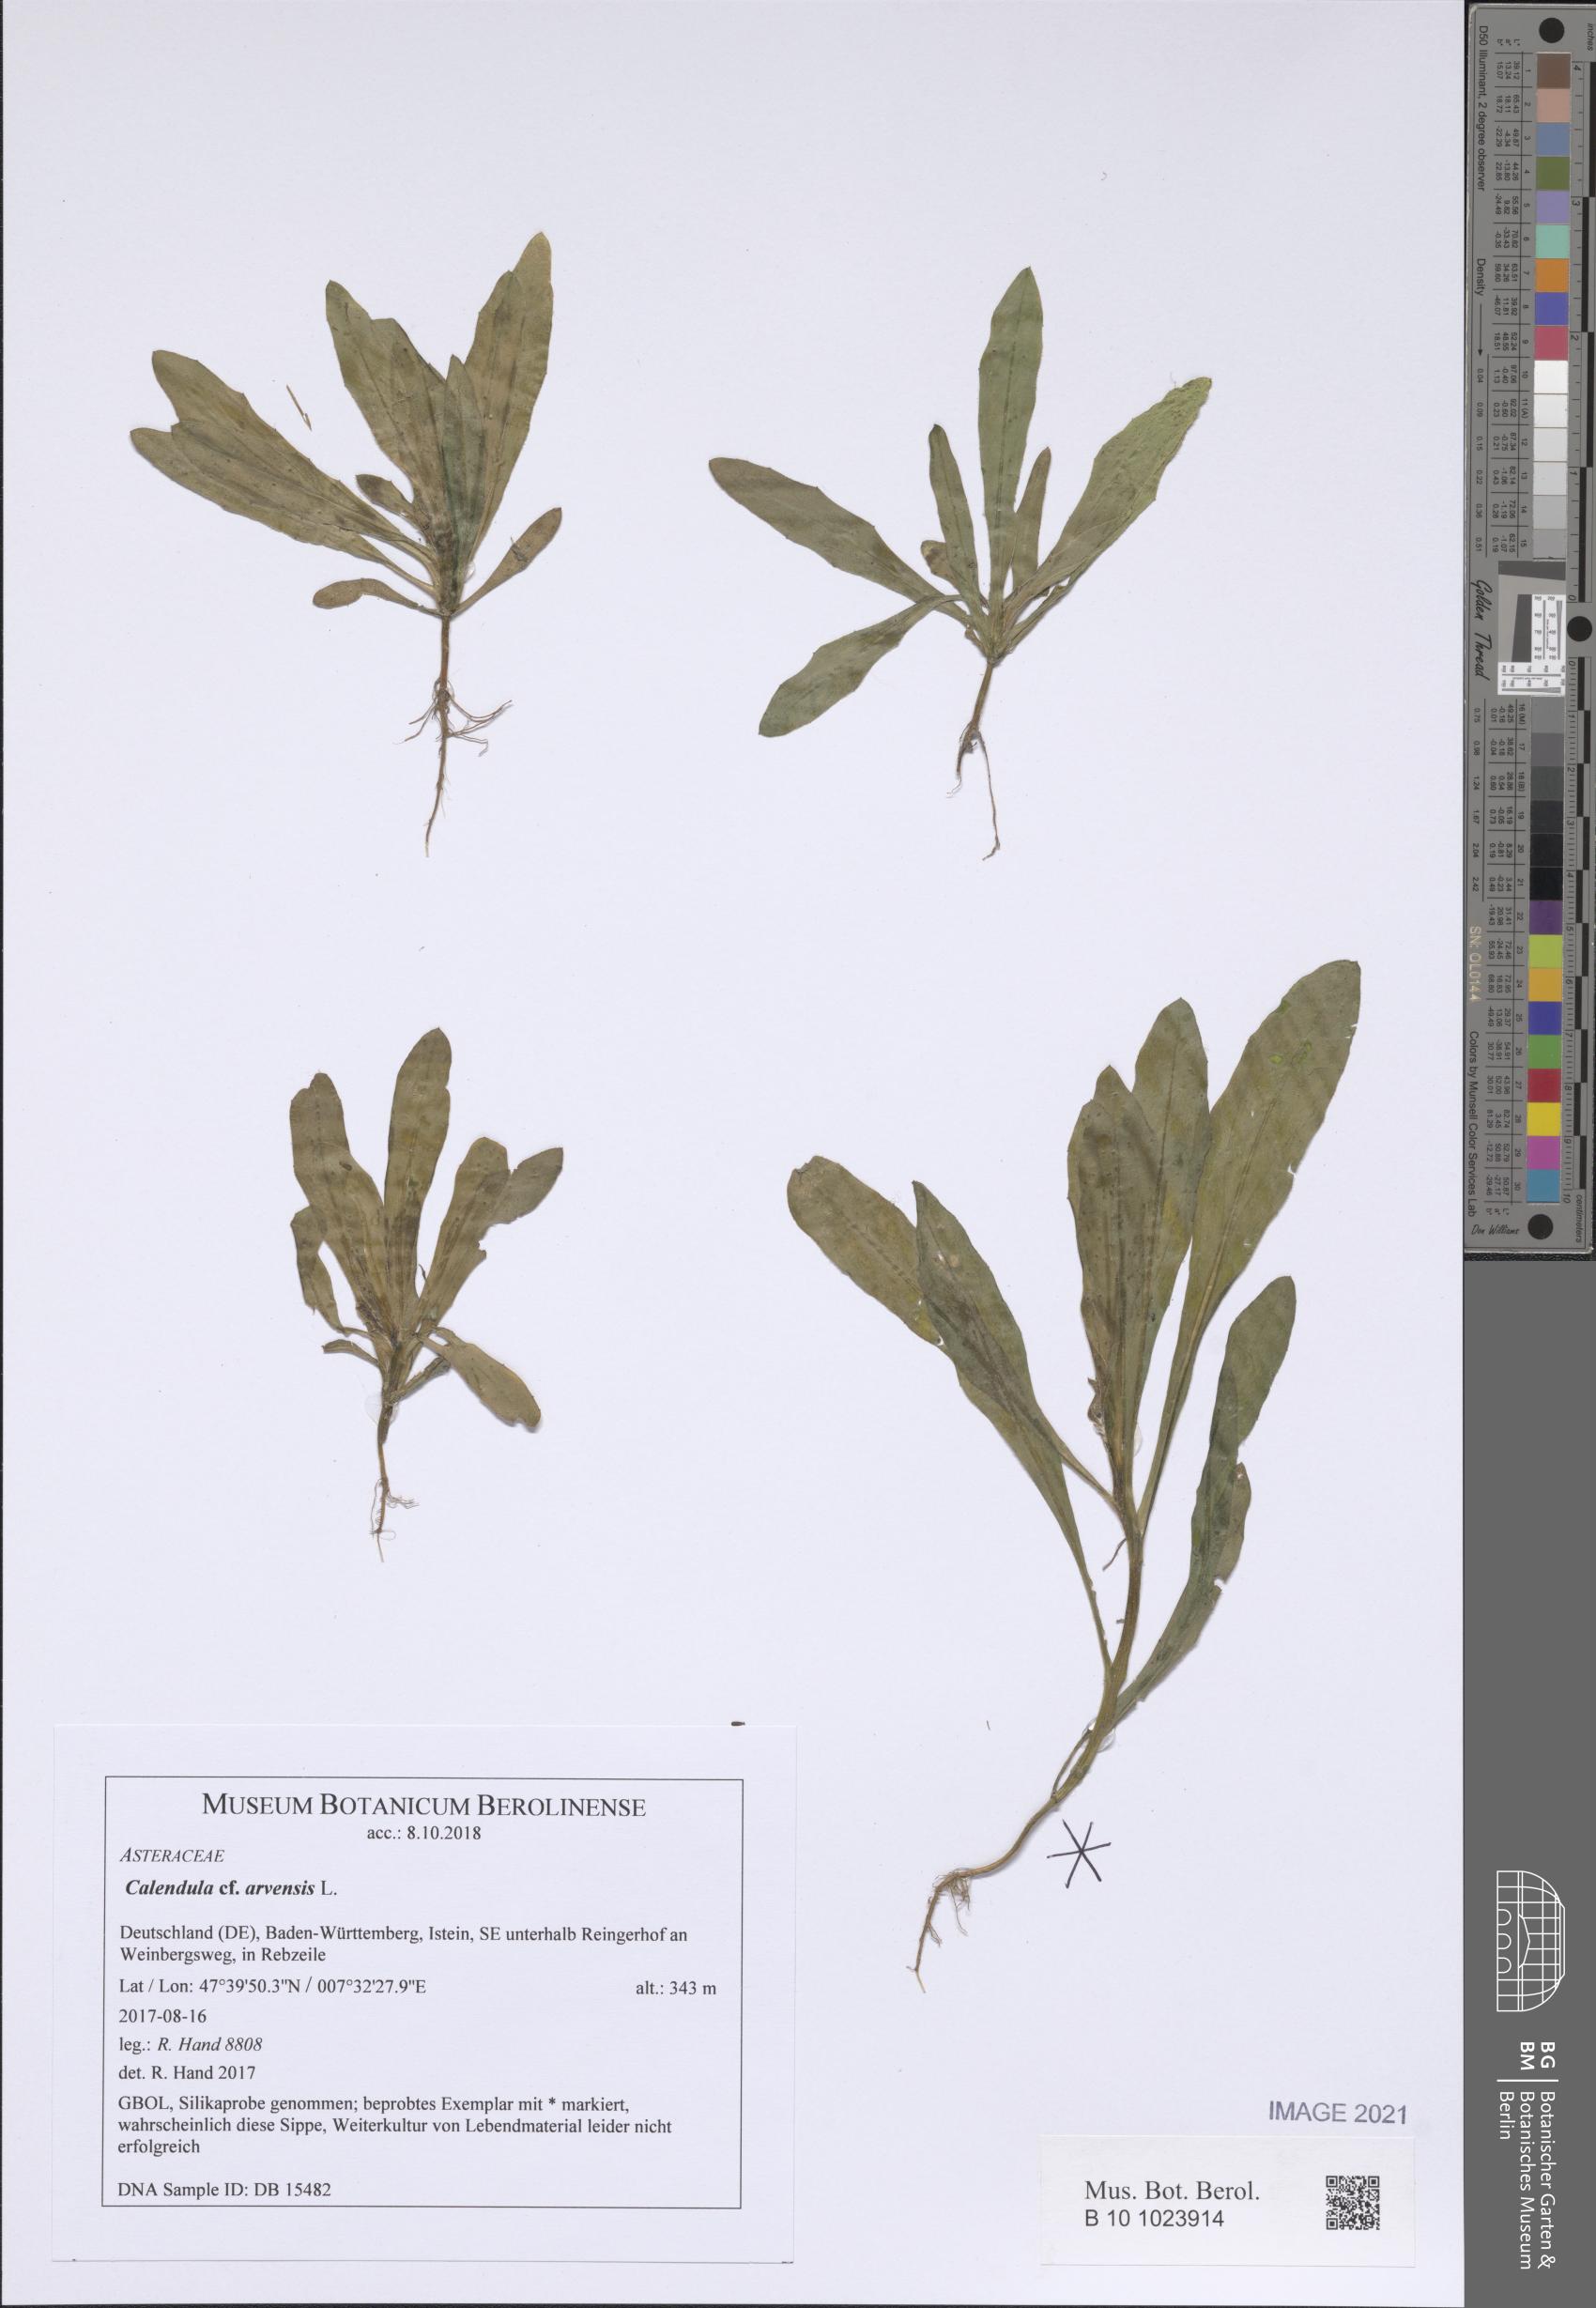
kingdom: Plantae
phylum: Tracheophyta
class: Magnoliopsida
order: Asterales
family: Asteraceae
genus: Calendula
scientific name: Calendula arvensis
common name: Field marigold
